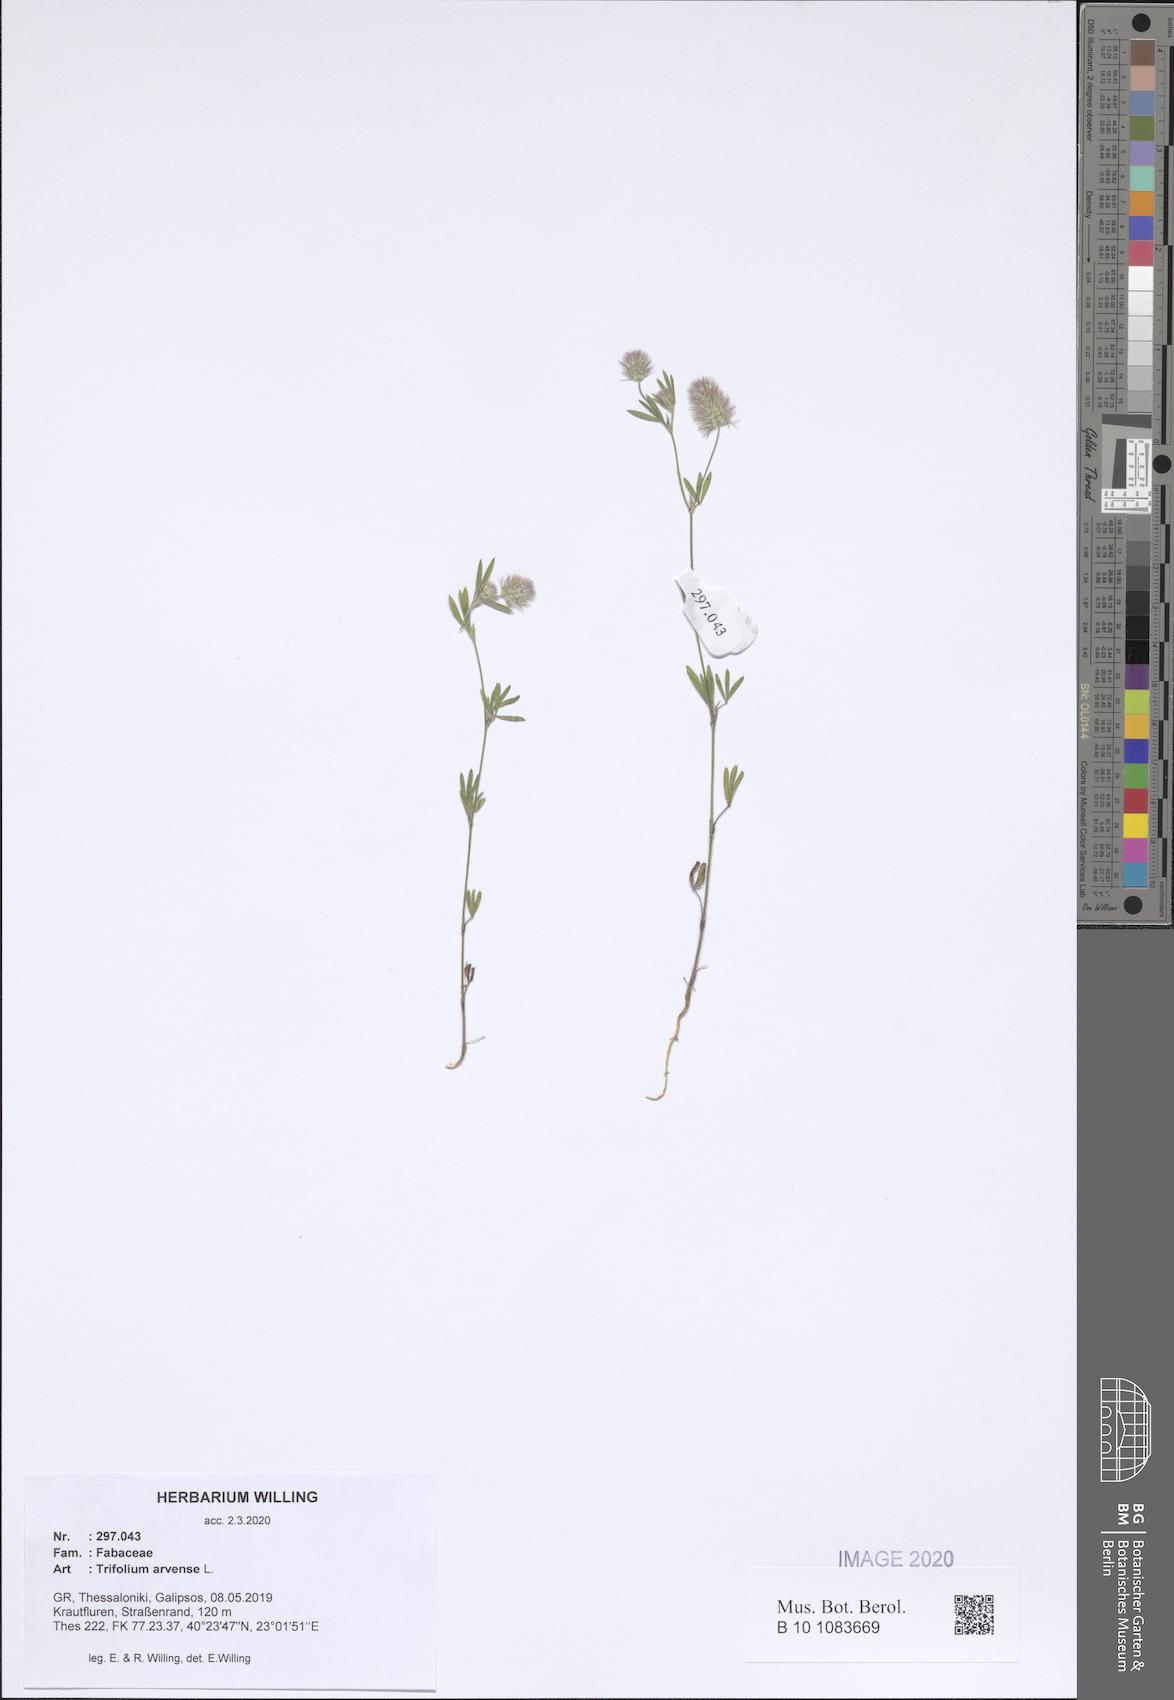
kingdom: Plantae
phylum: Tracheophyta
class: Magnoliopsida
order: Fabales
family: Fabaceae
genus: Trifolium
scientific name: Trifolium arvense
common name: Hare's-foot clover
